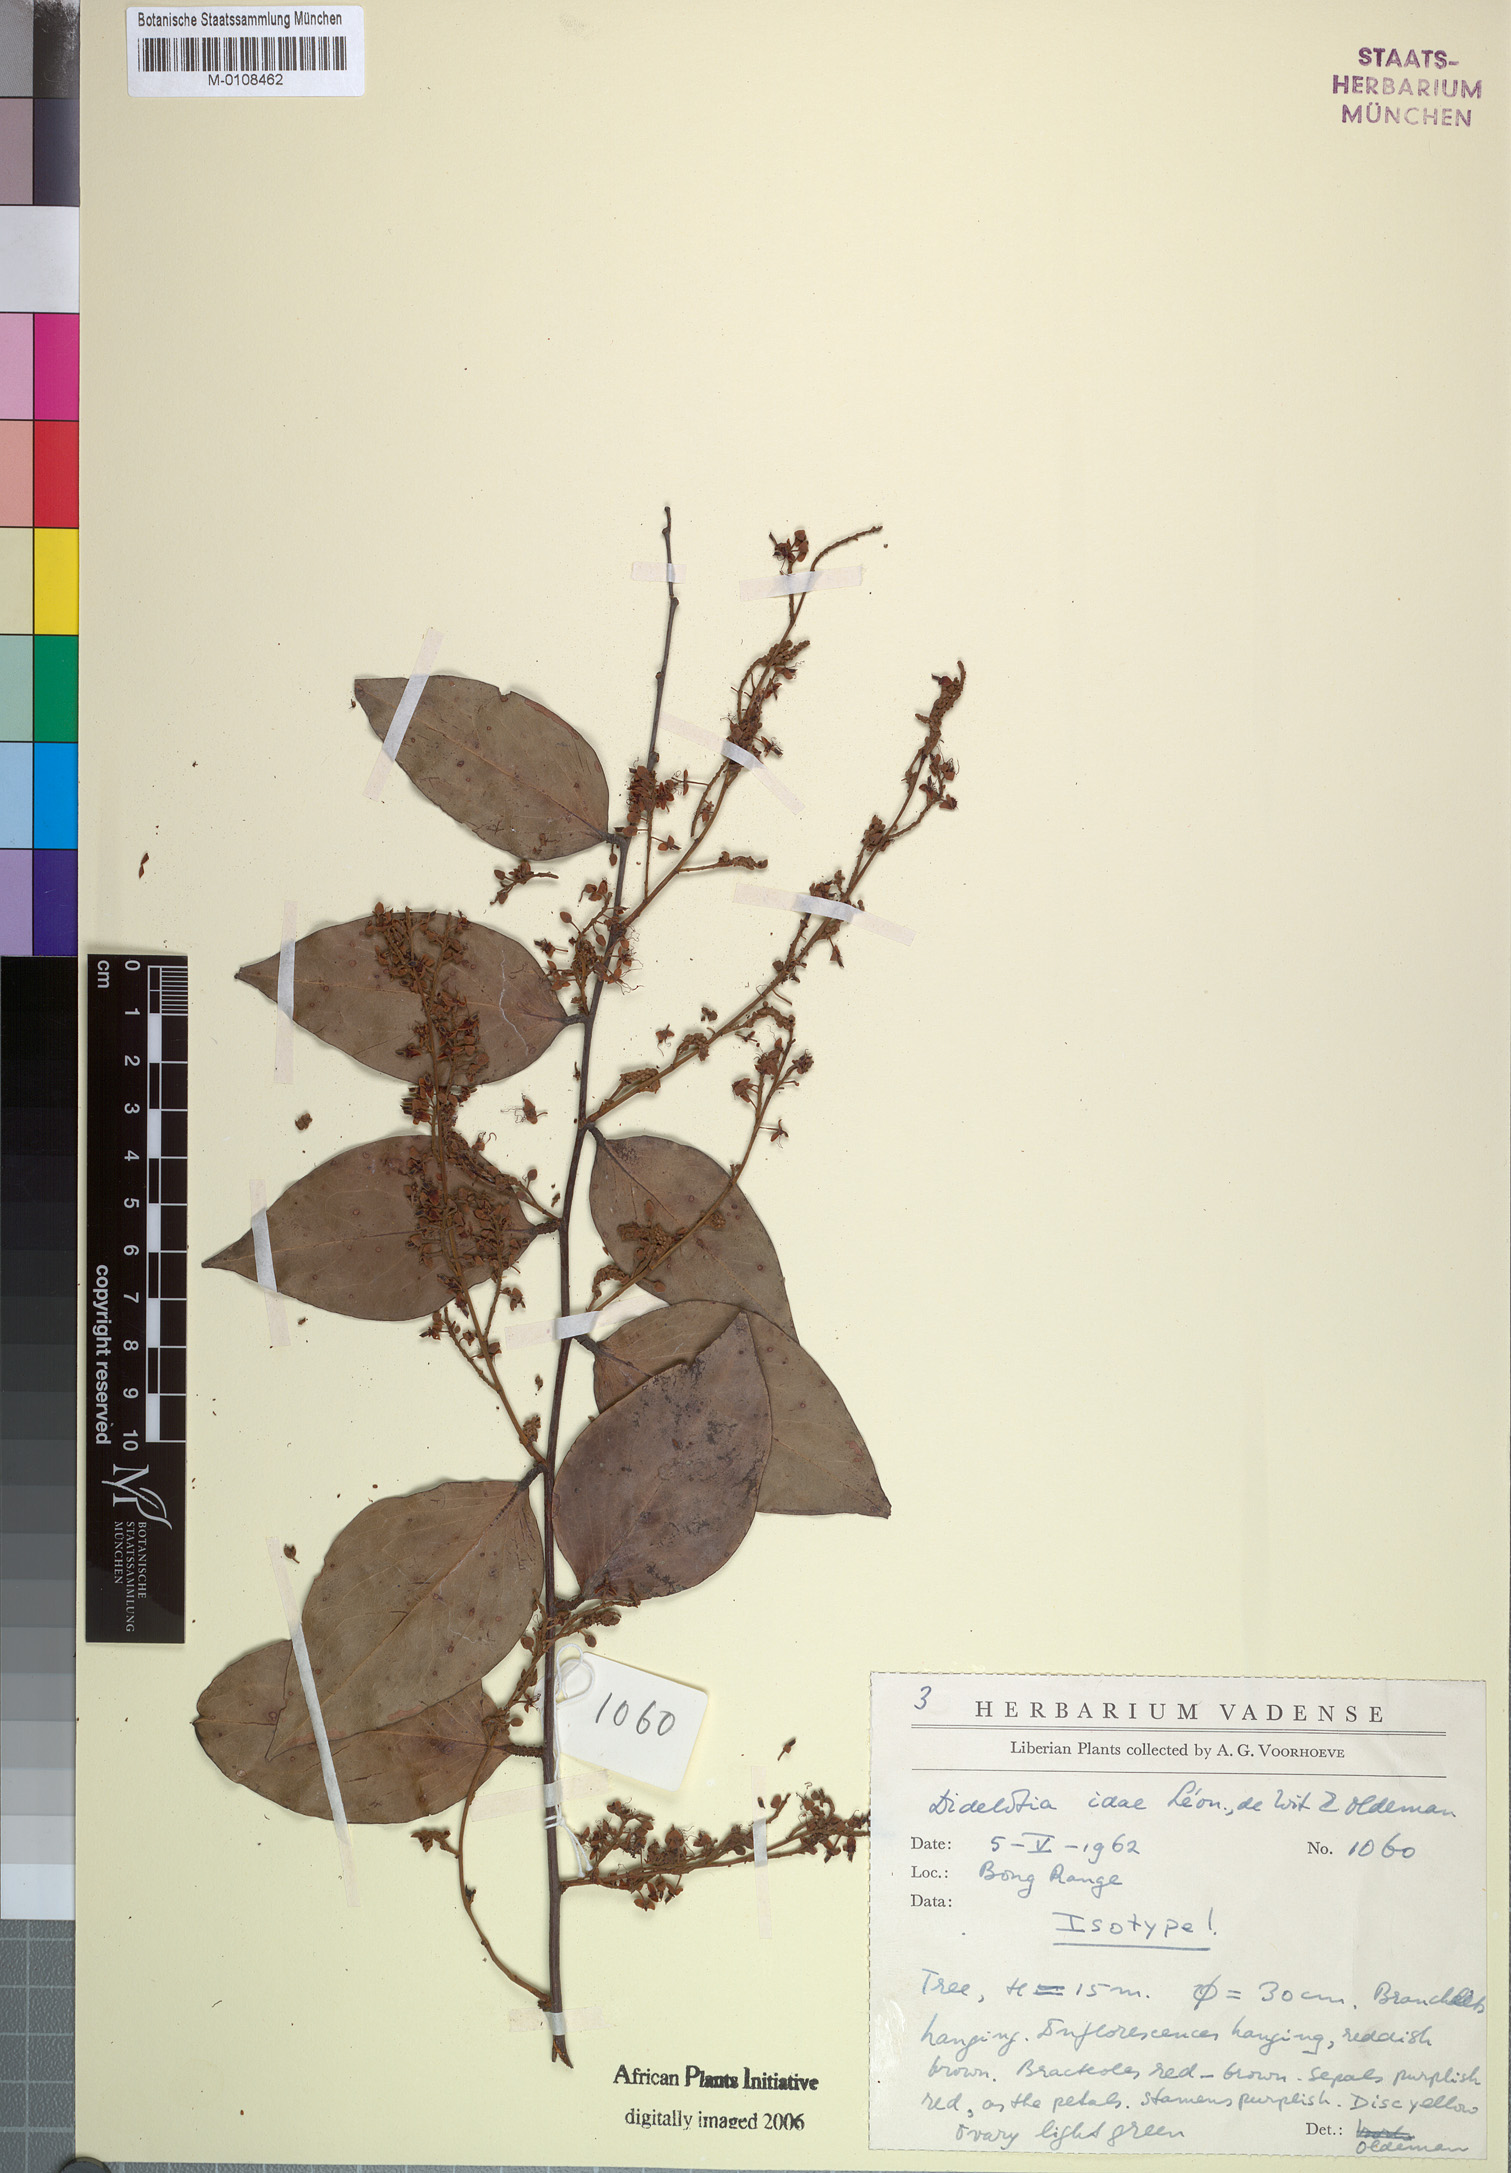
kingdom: Plantae
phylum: Tracheophyta
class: Magnoliopsida
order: Fabales
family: Fabaceae
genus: Didelotia
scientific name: Didelotia idae
